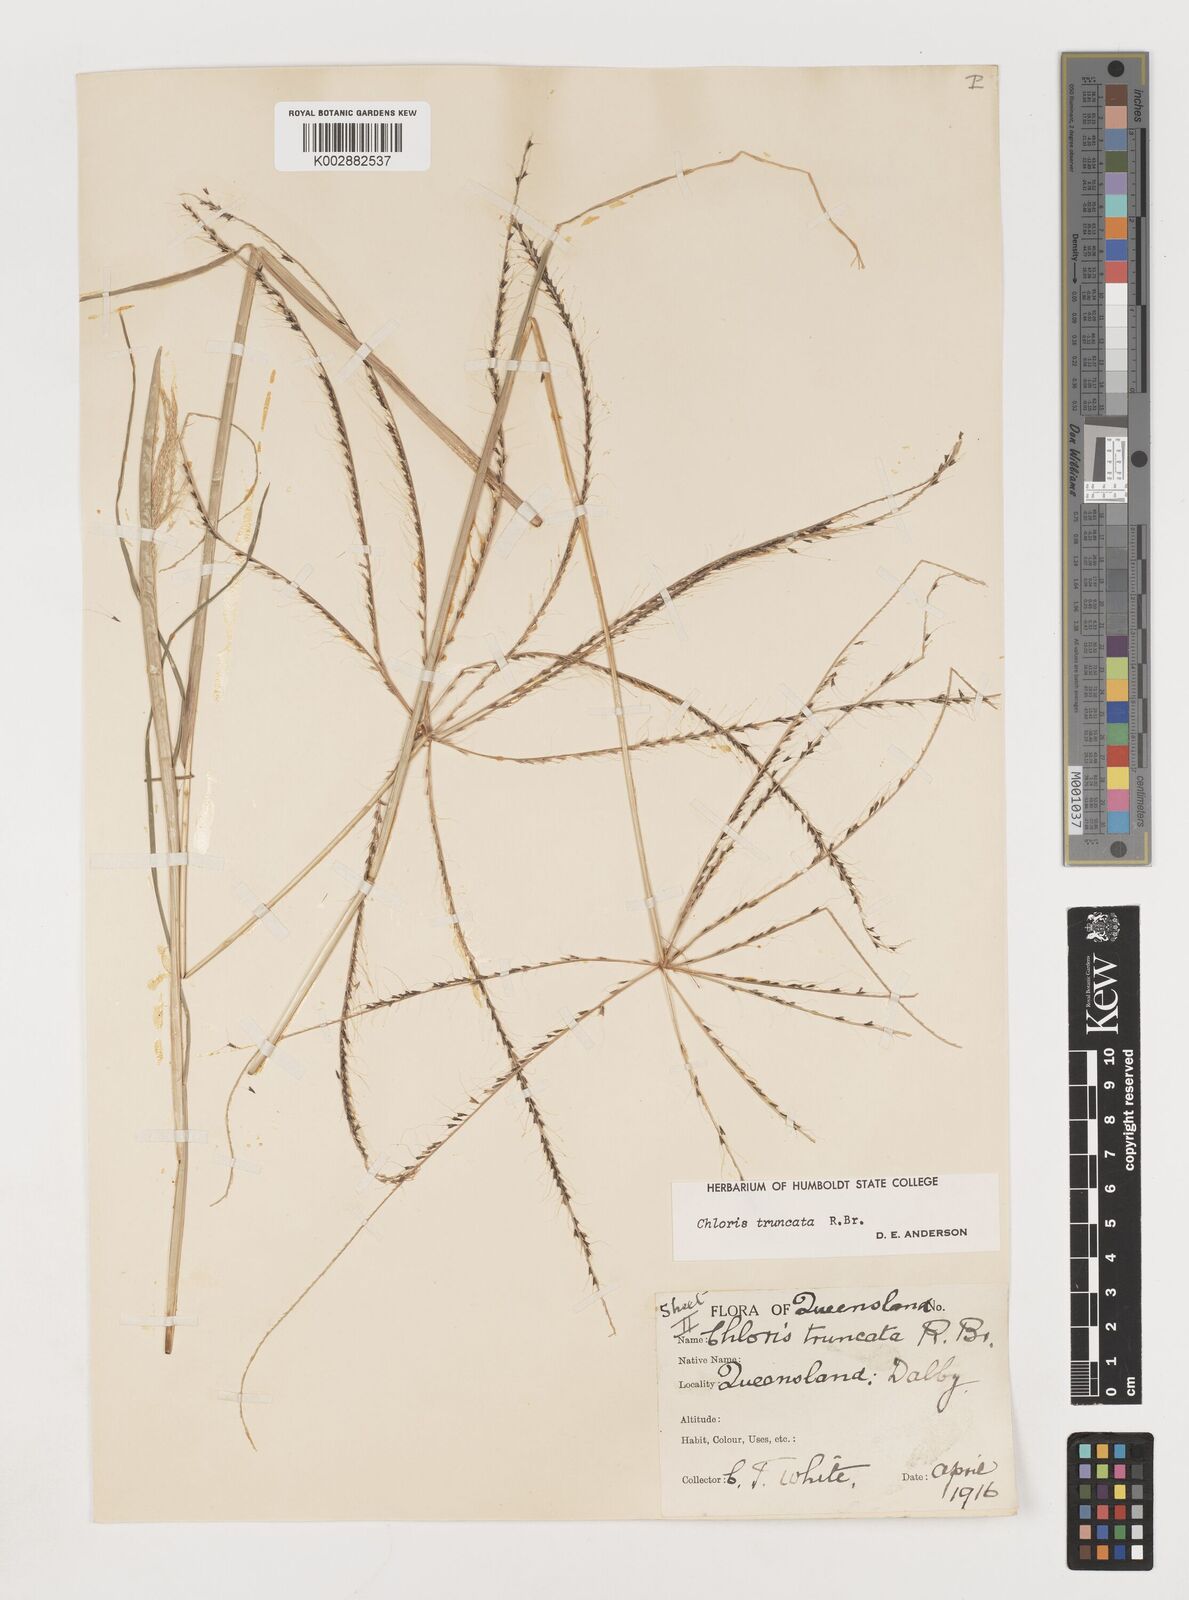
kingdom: Plantae
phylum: Tracheophyta
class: Liliopsida
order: Poales
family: Poaceae
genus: Chloris
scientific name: Chloris truncata
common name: Windmill-grass
